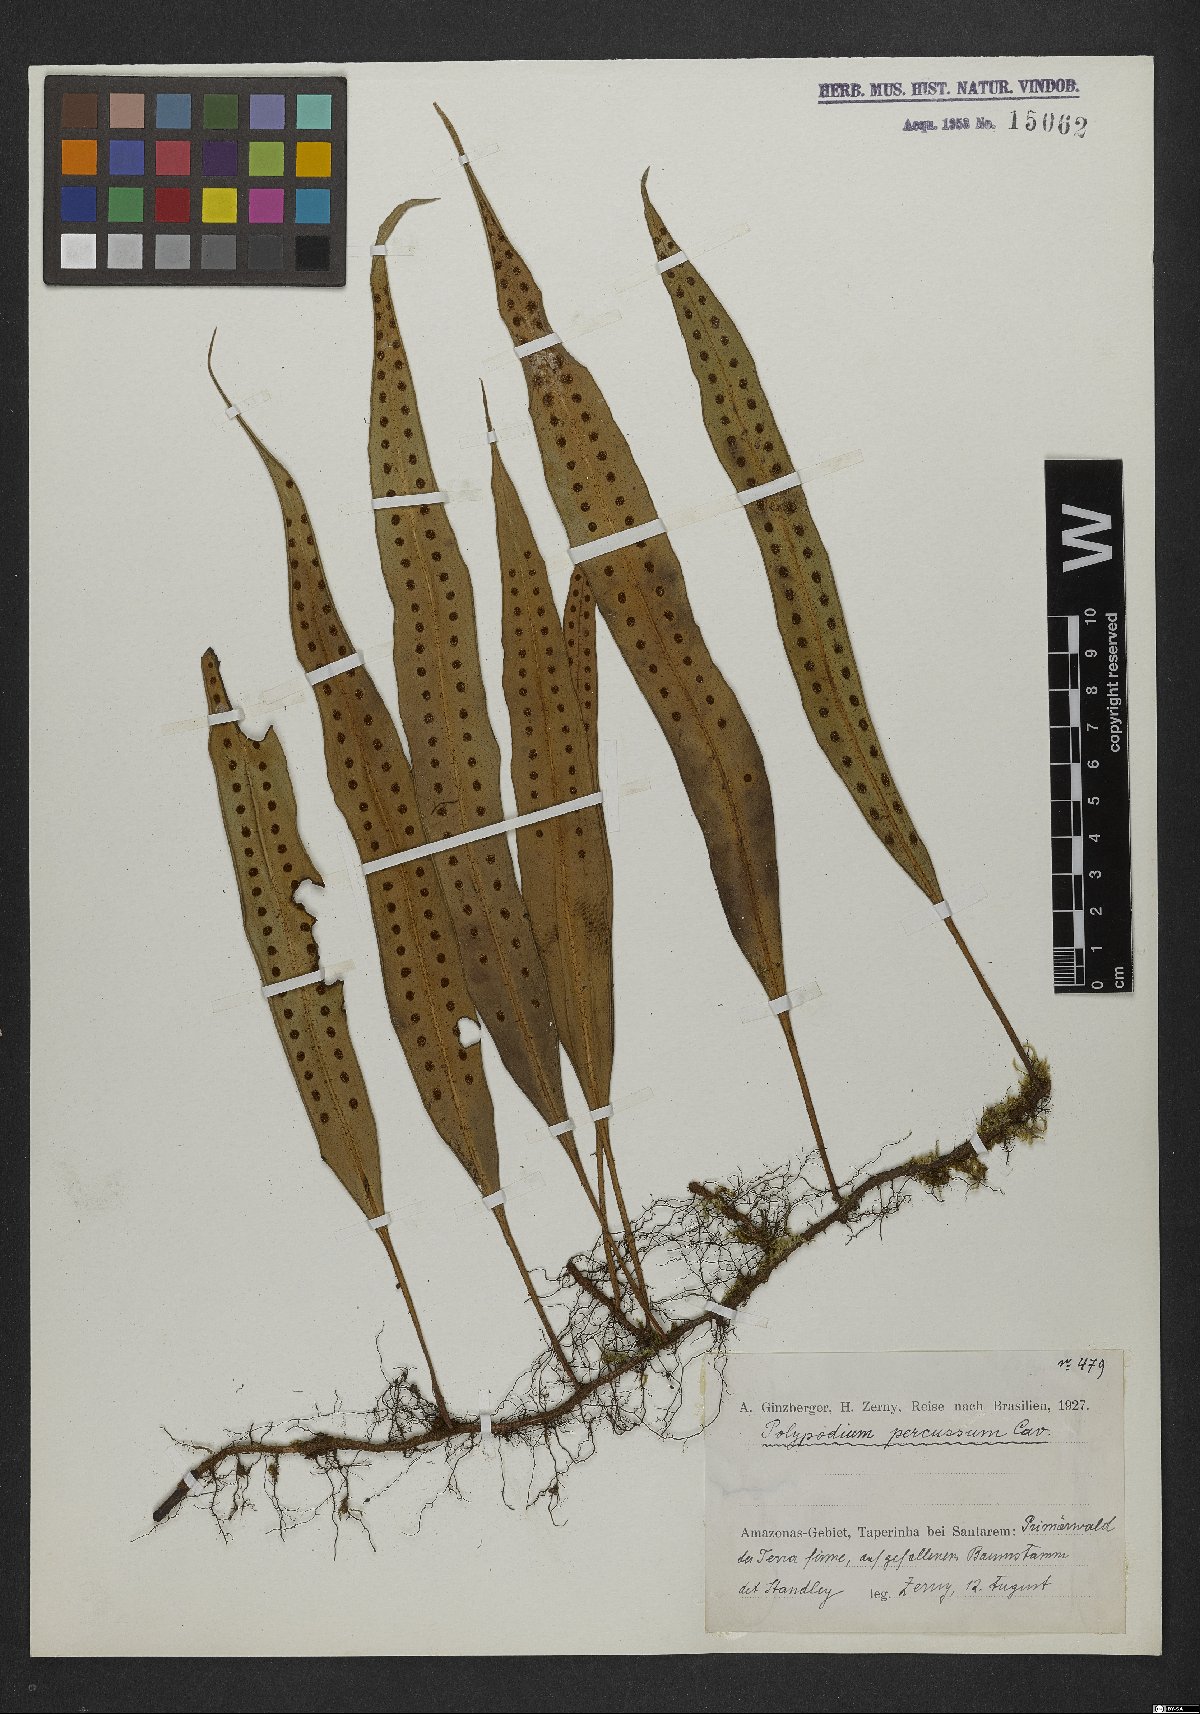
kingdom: Plantae
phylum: Tracheophyta
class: Polypodiopsida
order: Polypodiales
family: Polypodiaceae
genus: Microgramma
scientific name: Microgramma percussa
